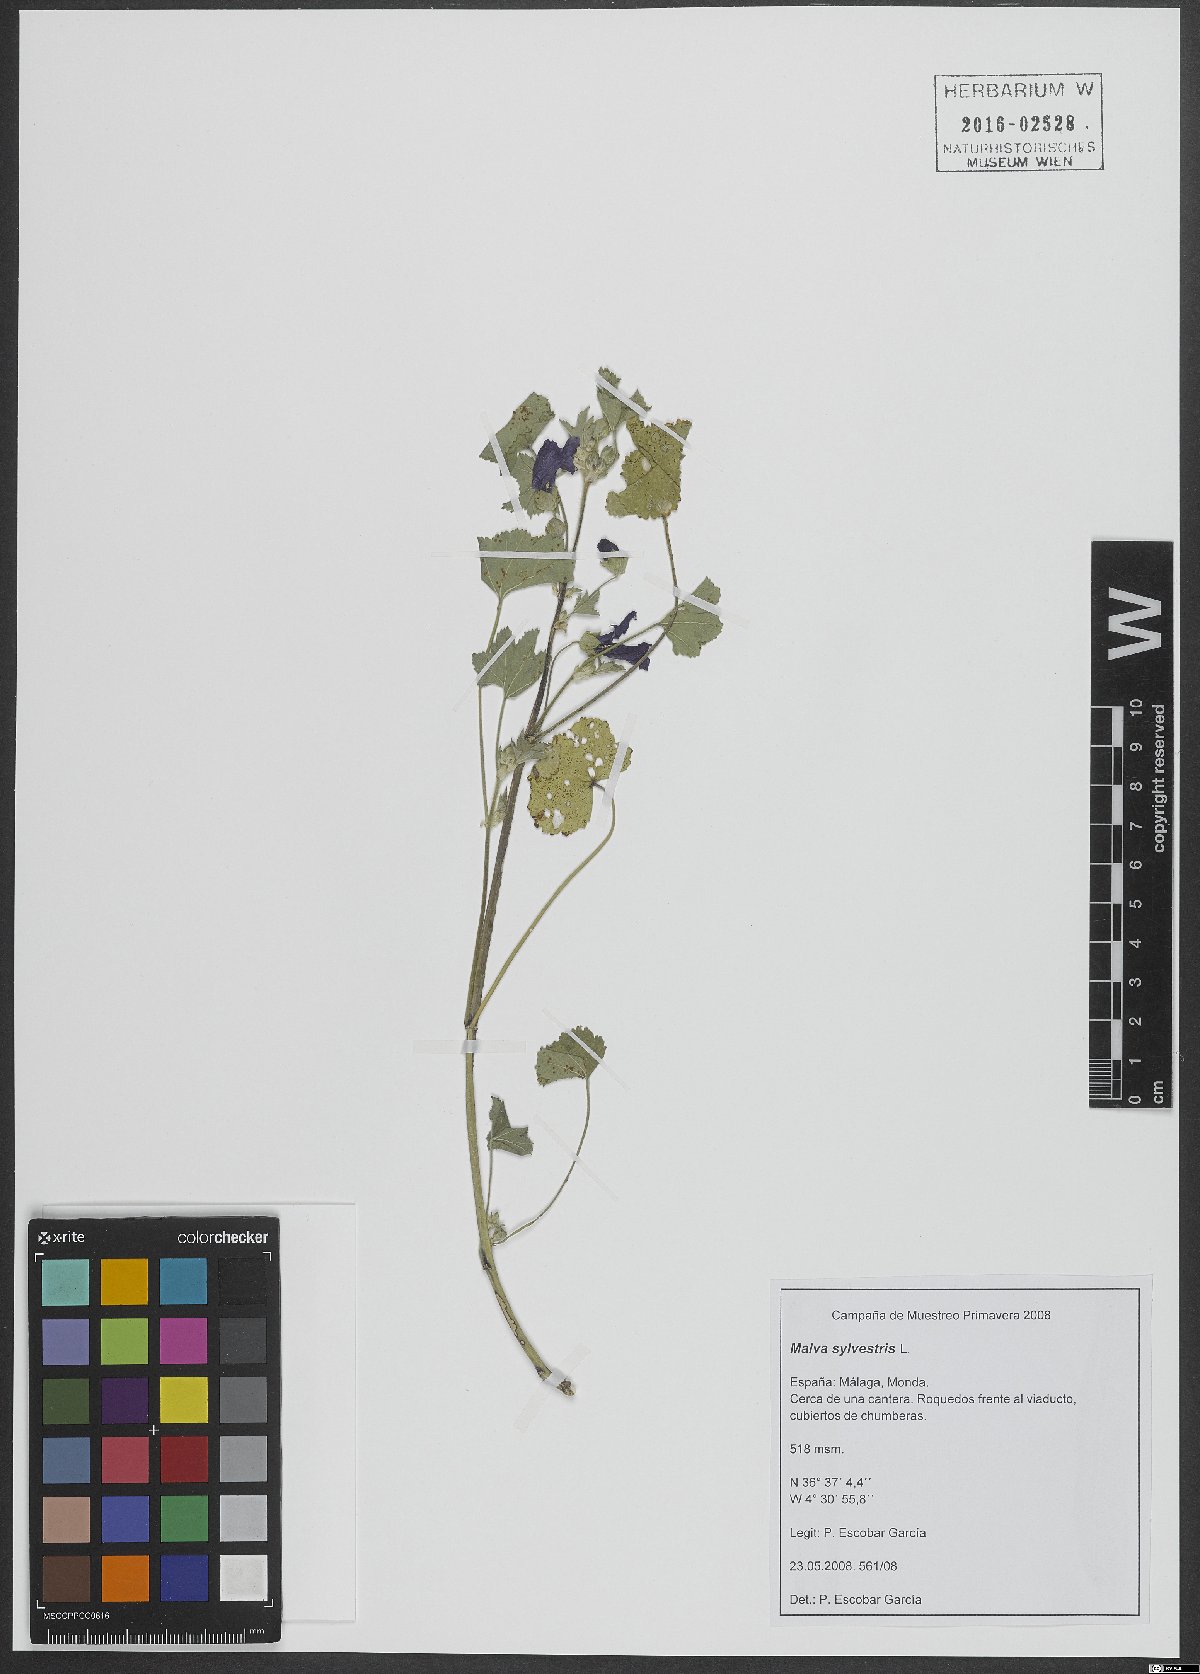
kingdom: Plantae
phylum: Tracheophyta
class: Magnoliopsida
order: Malvales
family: Malvaceae
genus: Malva
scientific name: Malva sylvestris
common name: Common mallow
